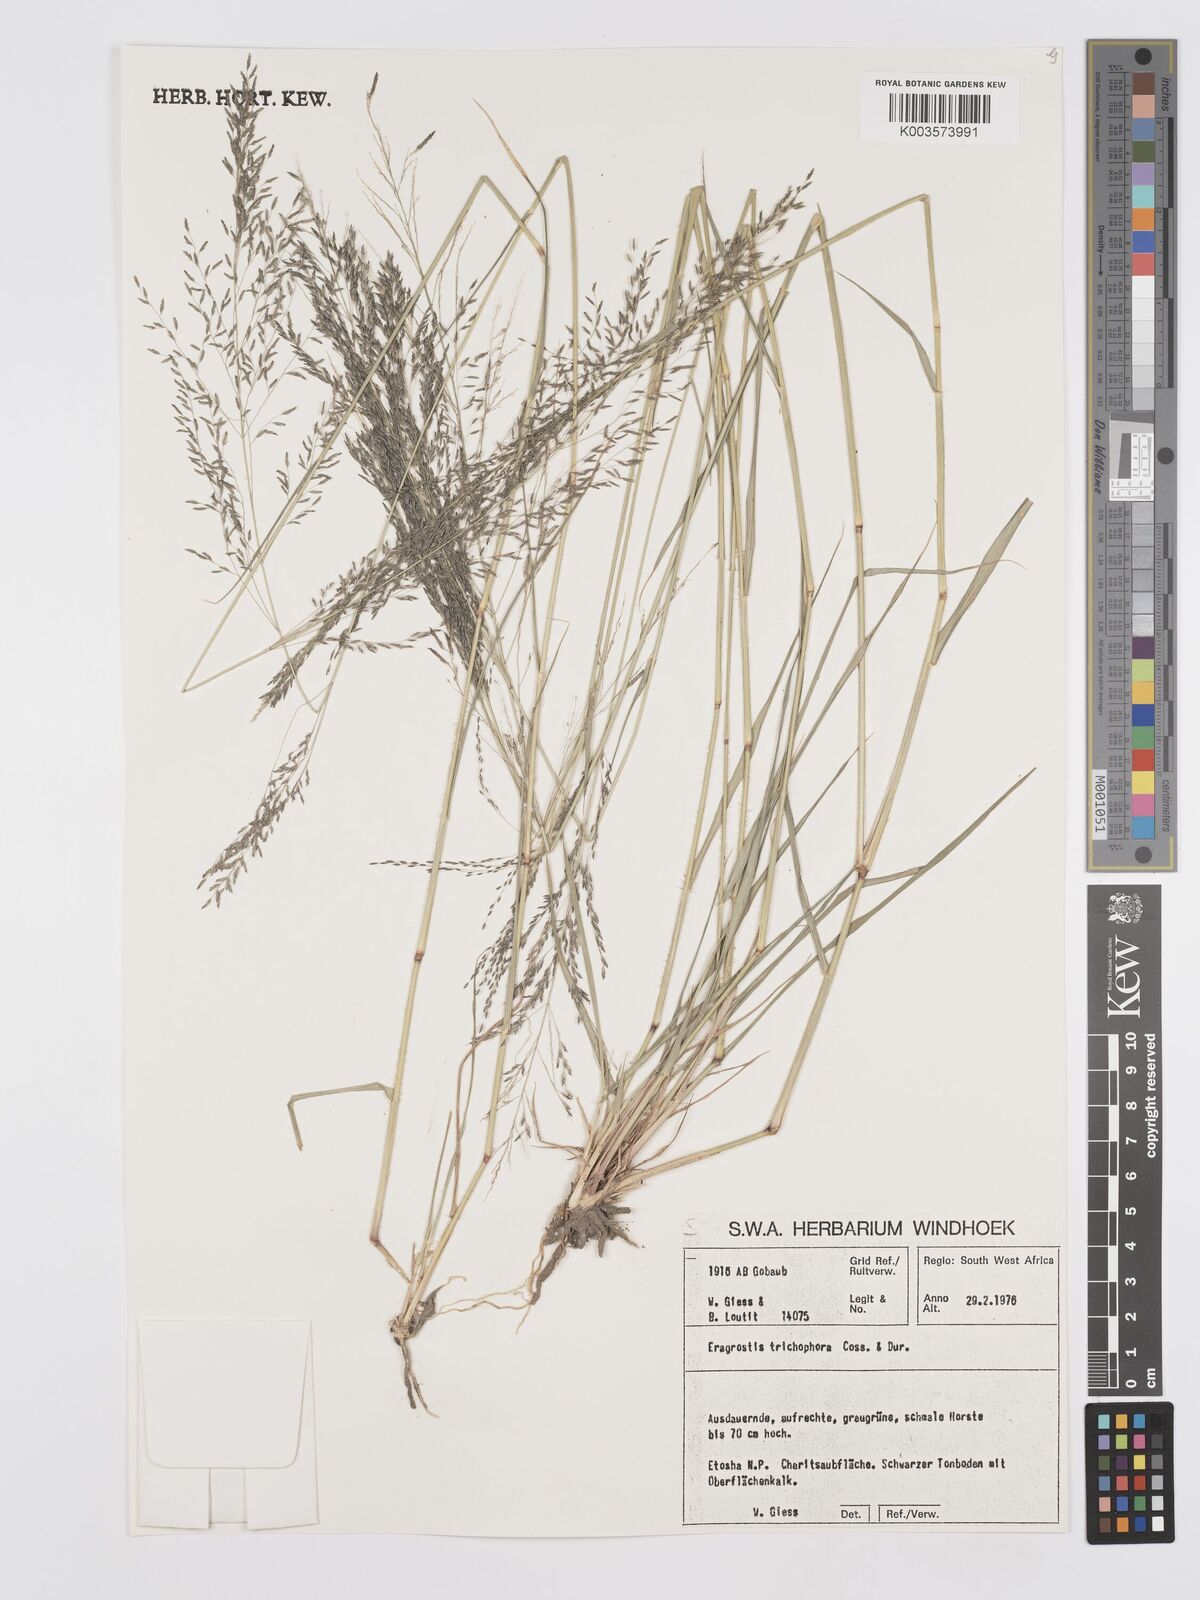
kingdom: Plantae
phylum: Tracheophyta
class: Liliopsida
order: Poales
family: Poaceae
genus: Eragrostis
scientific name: Eragrostis cylindriflora
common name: Cylinderflower lovegrass
